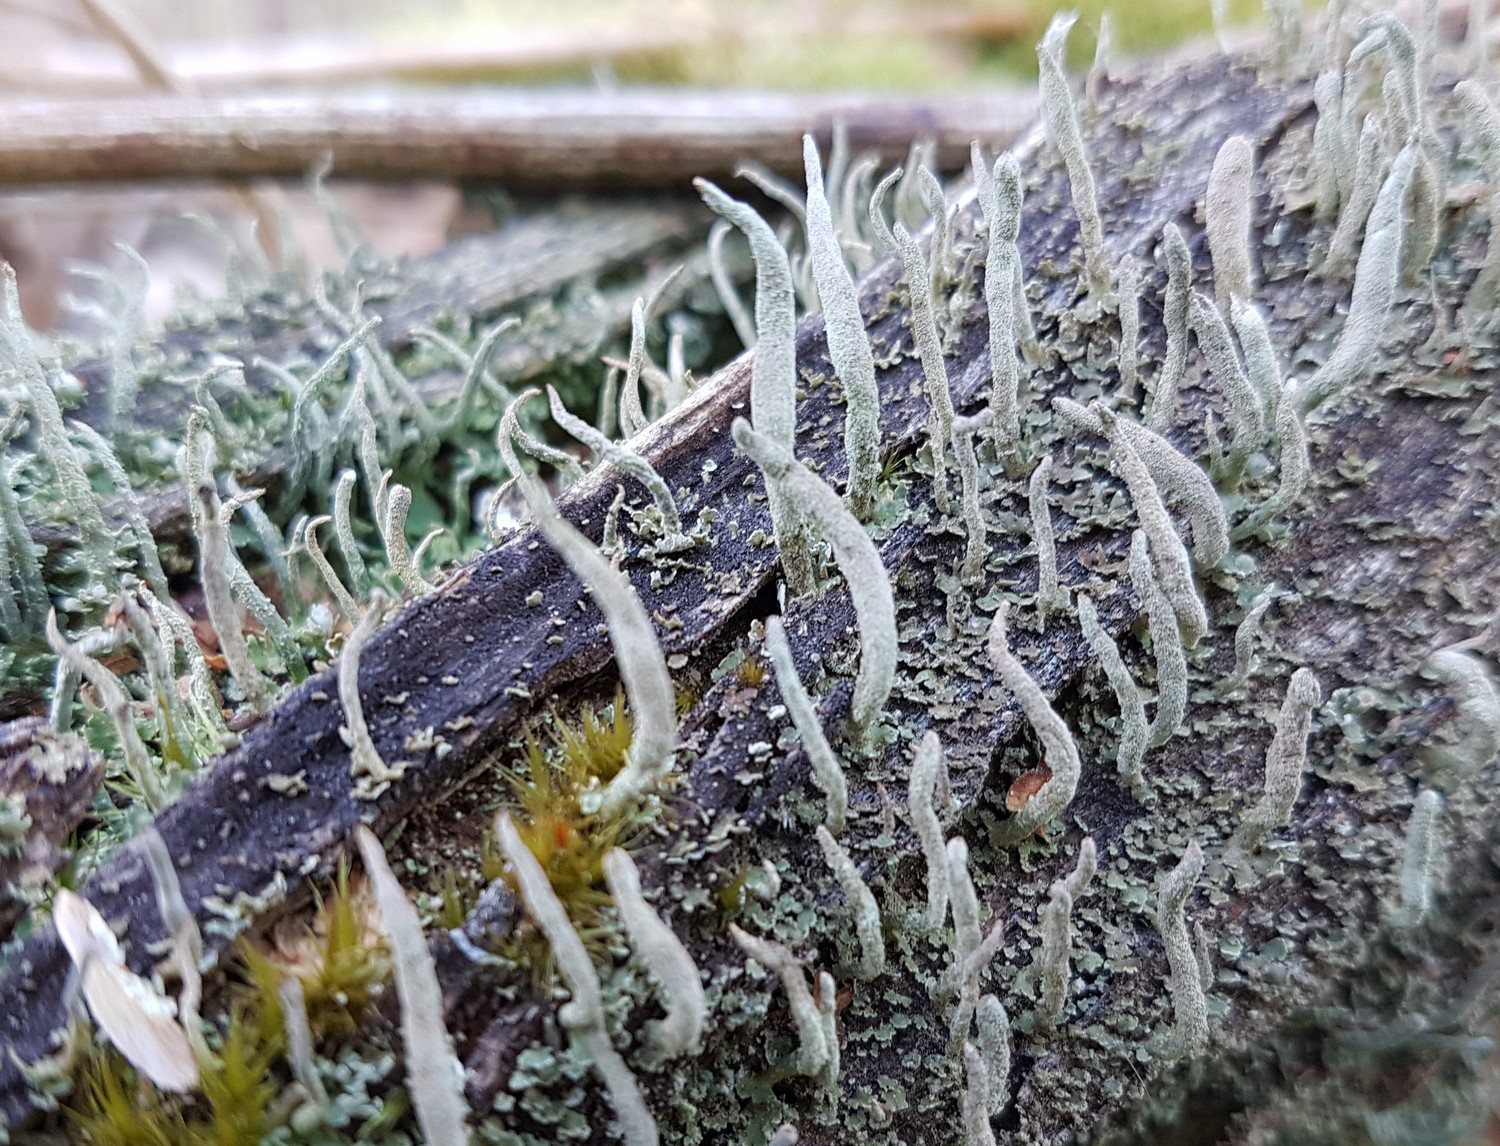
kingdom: Fungi
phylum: Ascomycota
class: Lecanoromycetes
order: Lecanorales
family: Cladoniaceae
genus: Cladonia
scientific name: Cladonia coniocraea
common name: træfods-bægerlav
